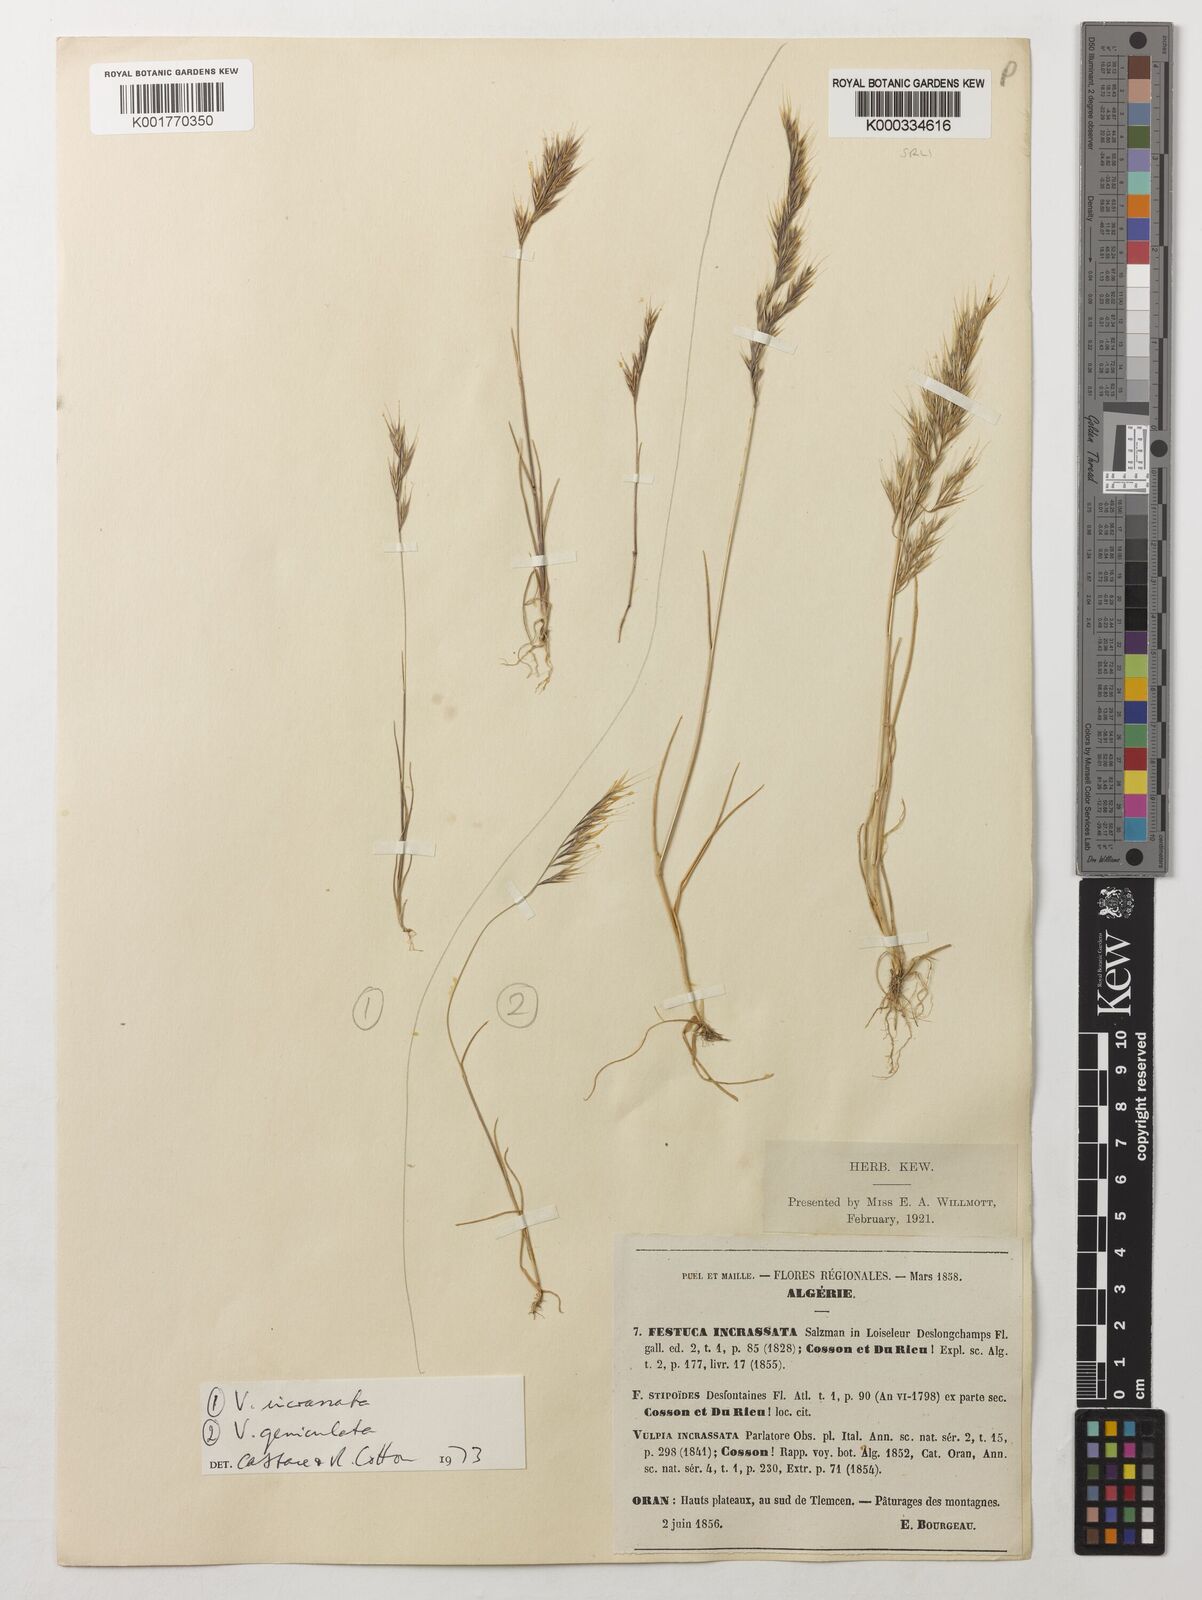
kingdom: Plantae
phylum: Tracheophyta
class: Liliopsida
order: Poales
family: Poaceae
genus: Vulpiella
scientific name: Vulpiella stipoides
